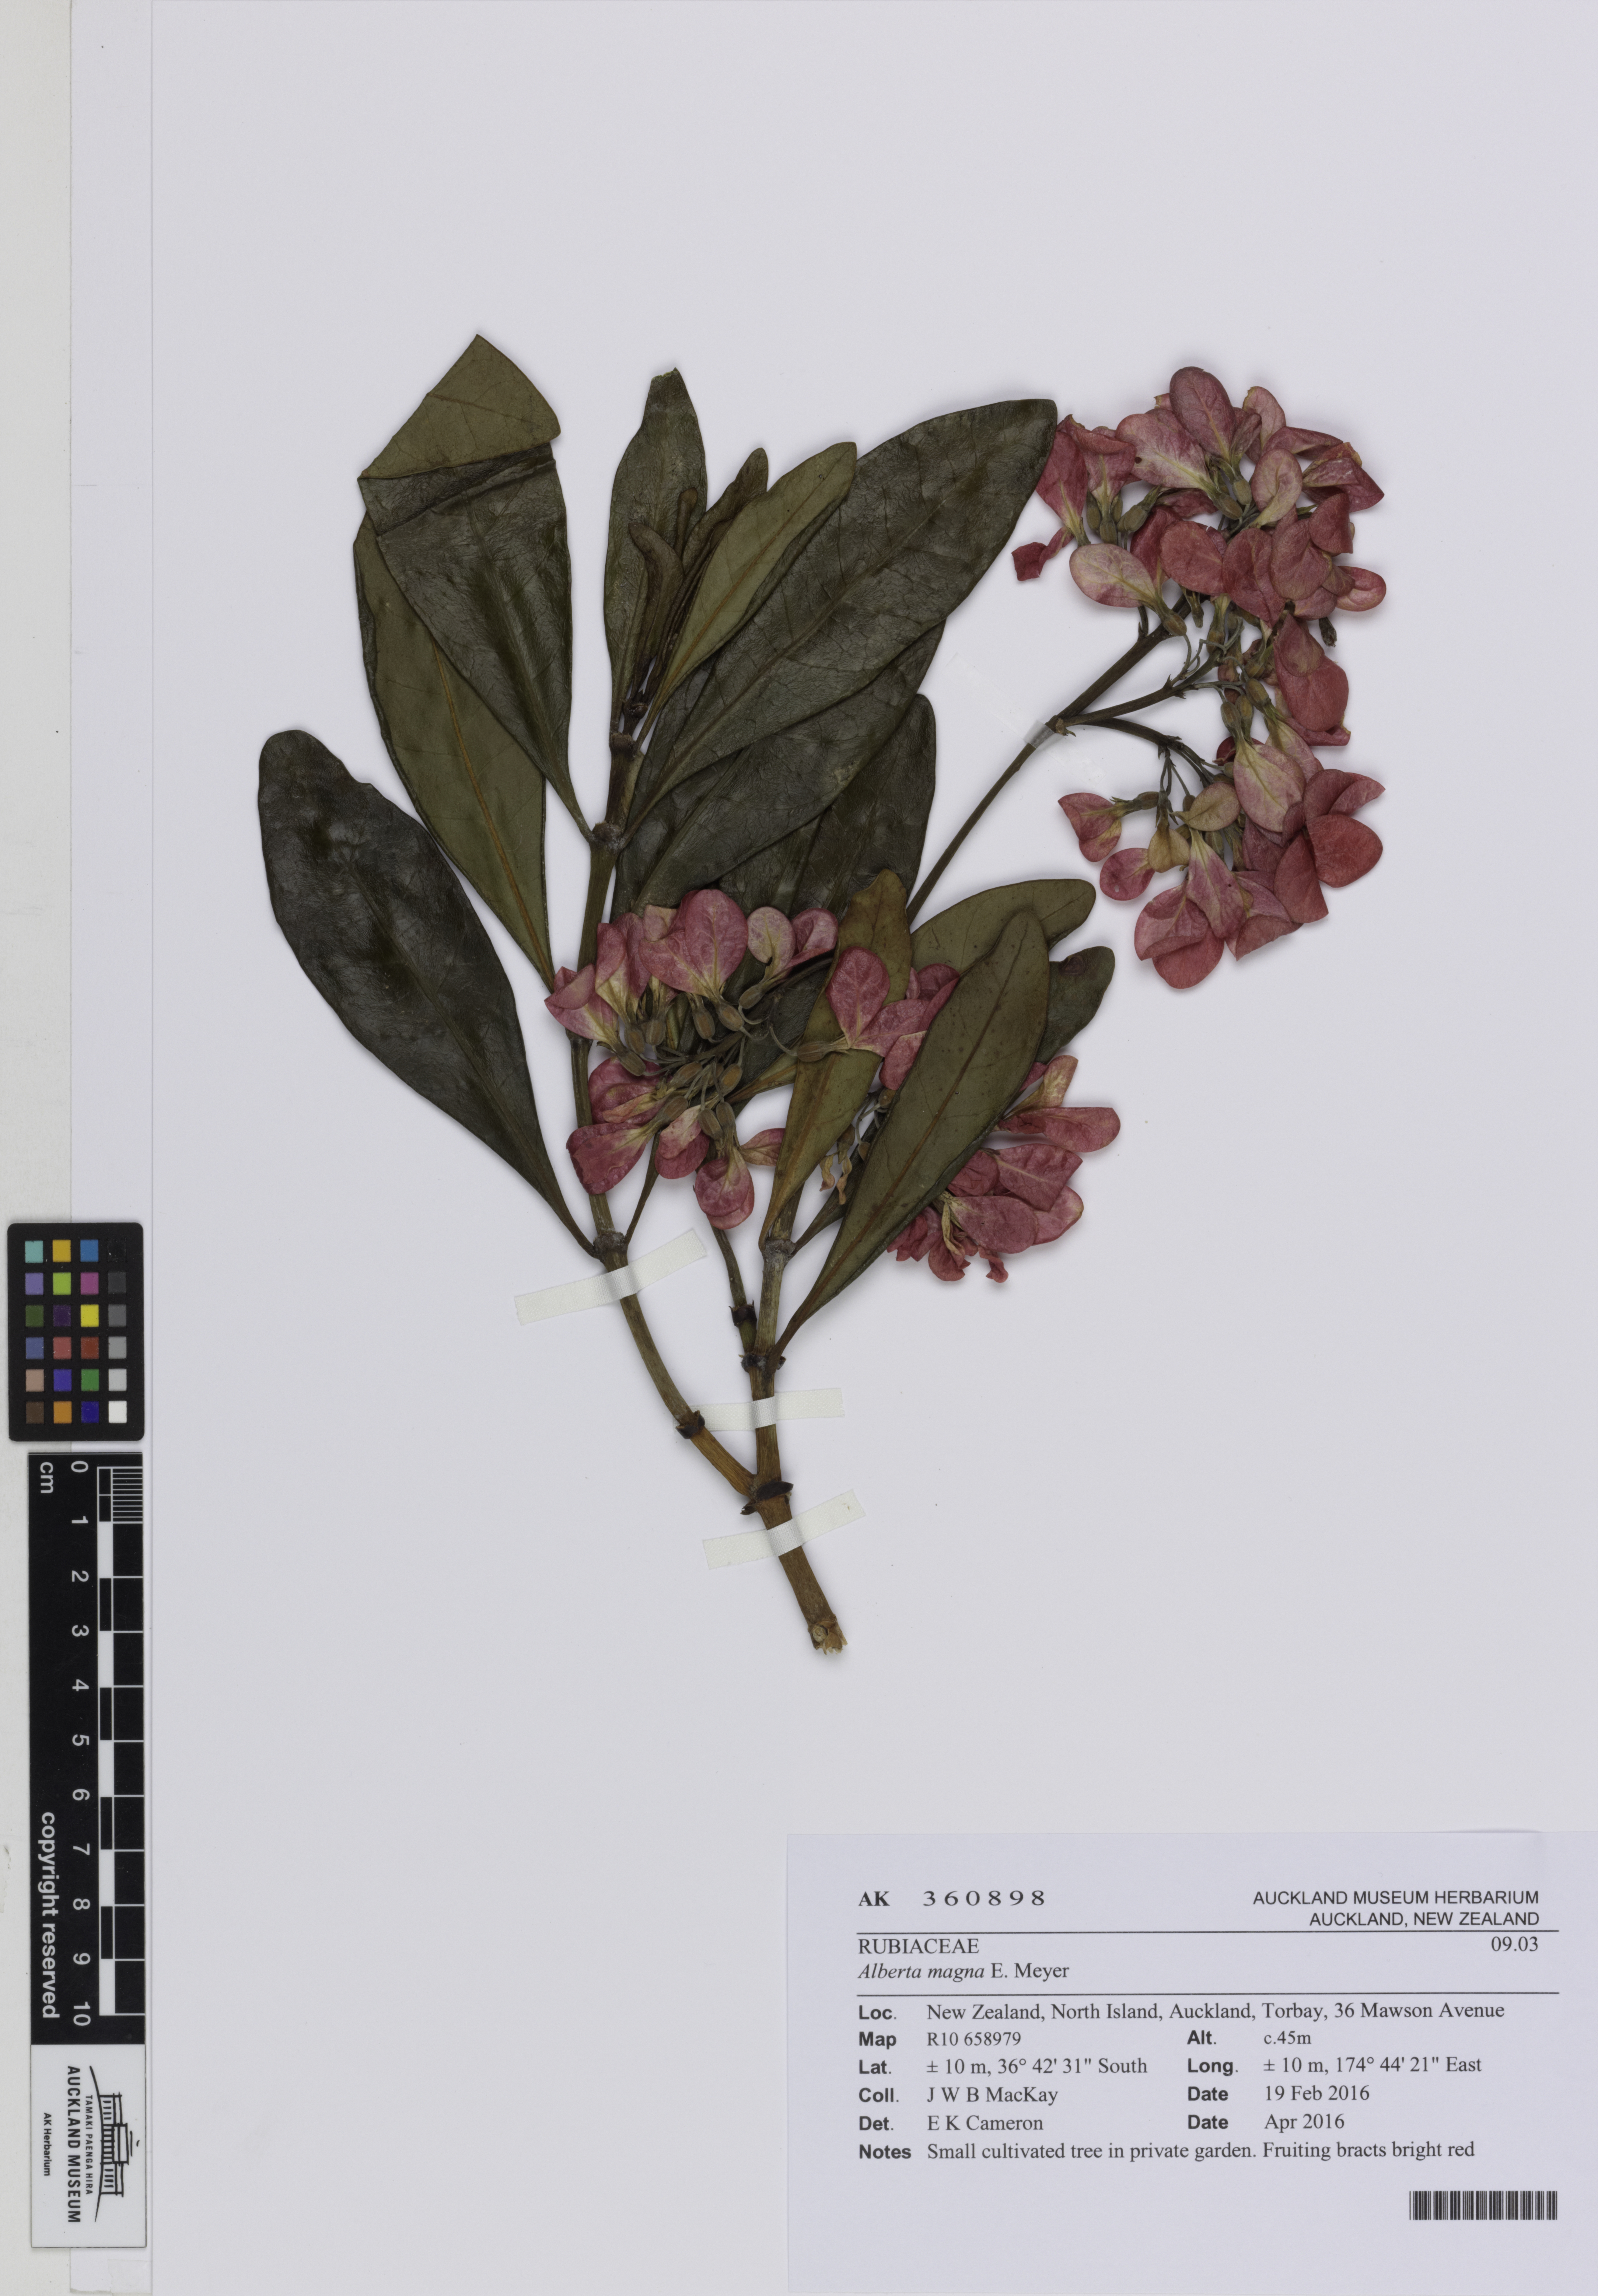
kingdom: Plantae
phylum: Tracheophyta
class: Magnoliopsida
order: Gentianales
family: Rubiaceae
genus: Alberta
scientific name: Alberta magna
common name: Magnificent-flame
